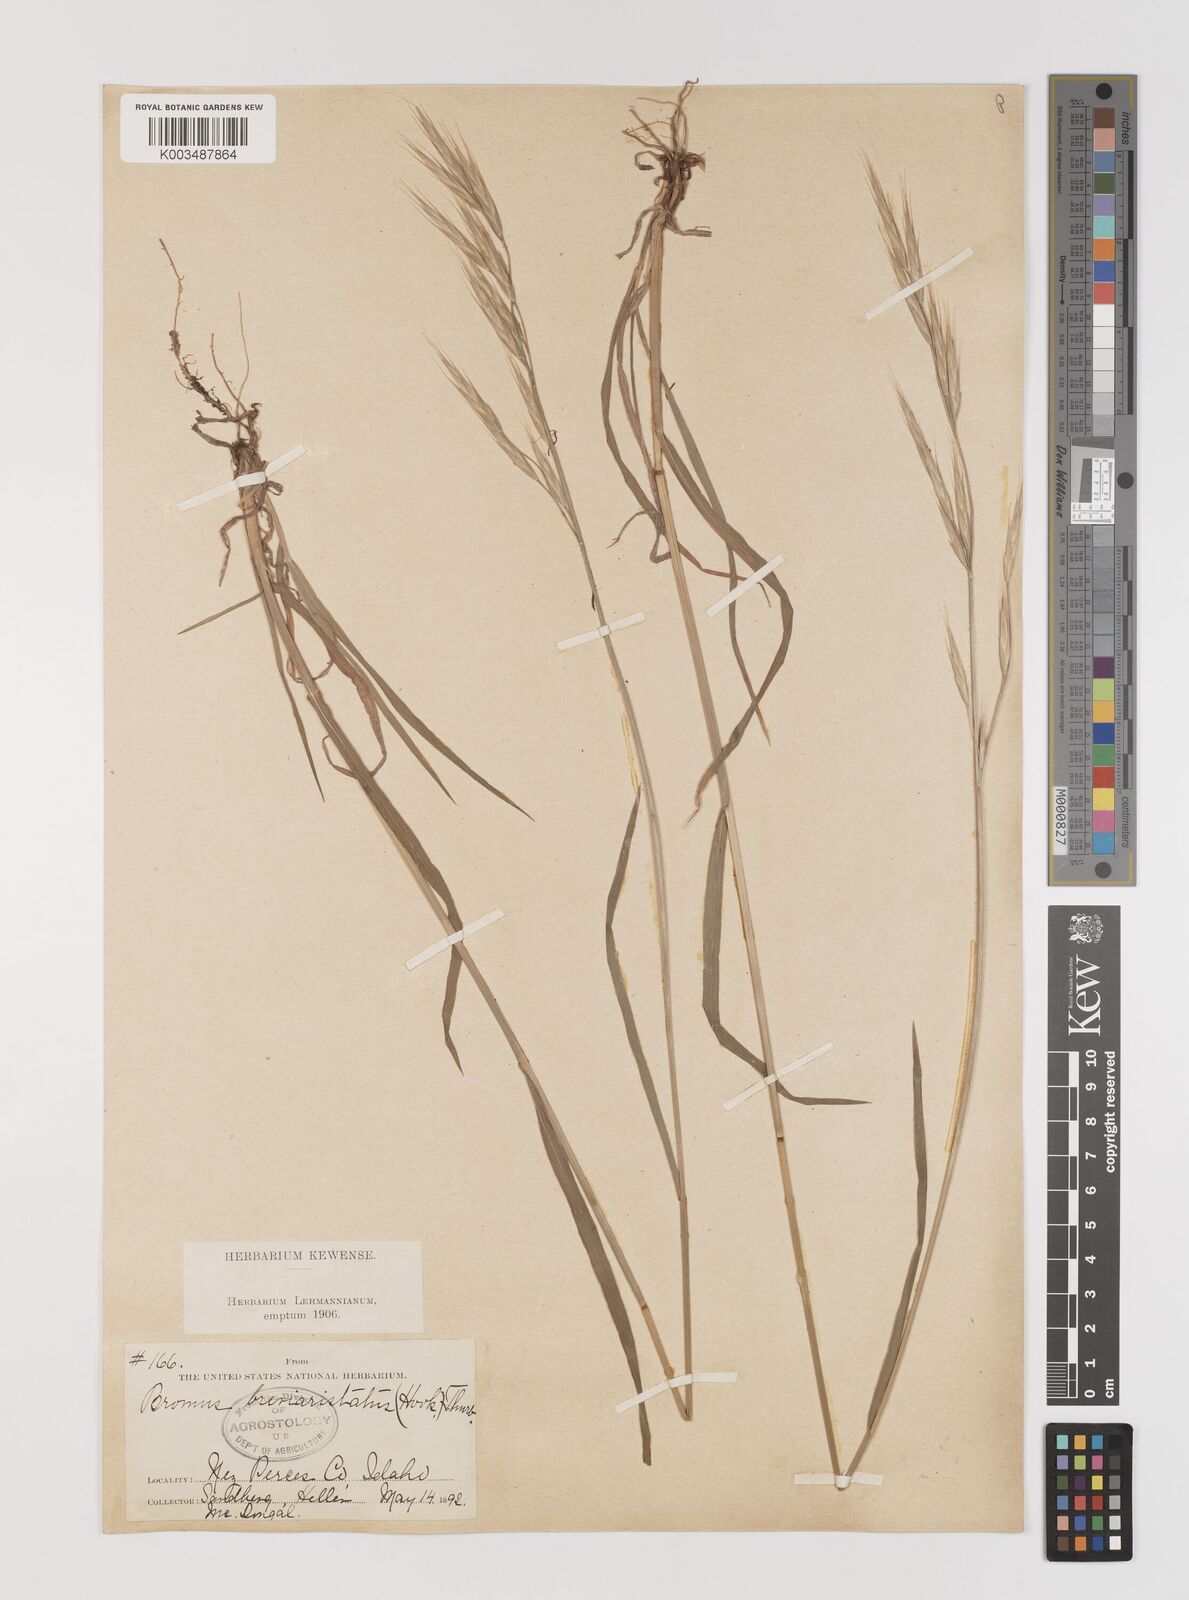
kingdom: Plantae
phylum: Tracheophyta
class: Liliopsida
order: Poales
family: Poaceae
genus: Bromus
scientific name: Bromus catharticus
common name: Rescuegrass
